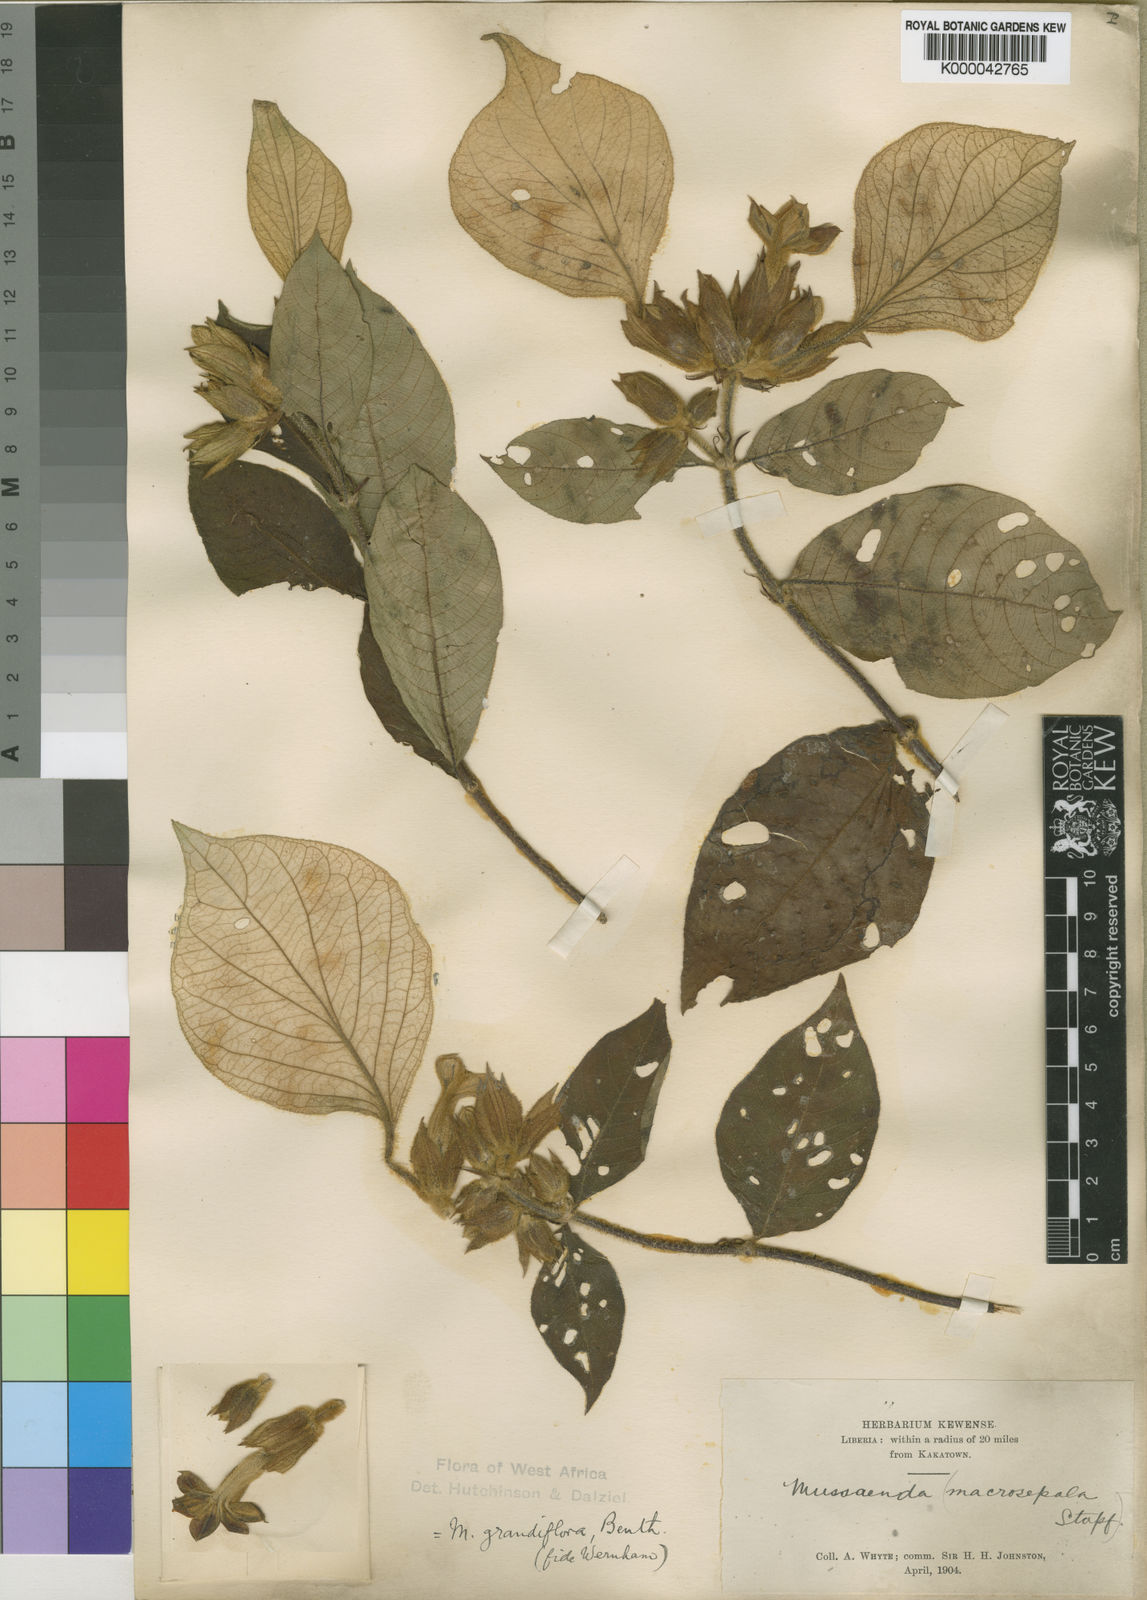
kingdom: Plantae
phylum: Tracheophyta
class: Magnoliopsida
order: Gentianales
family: Rubiaceae
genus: Mussaenda
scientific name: Mussaenda grandiflora
